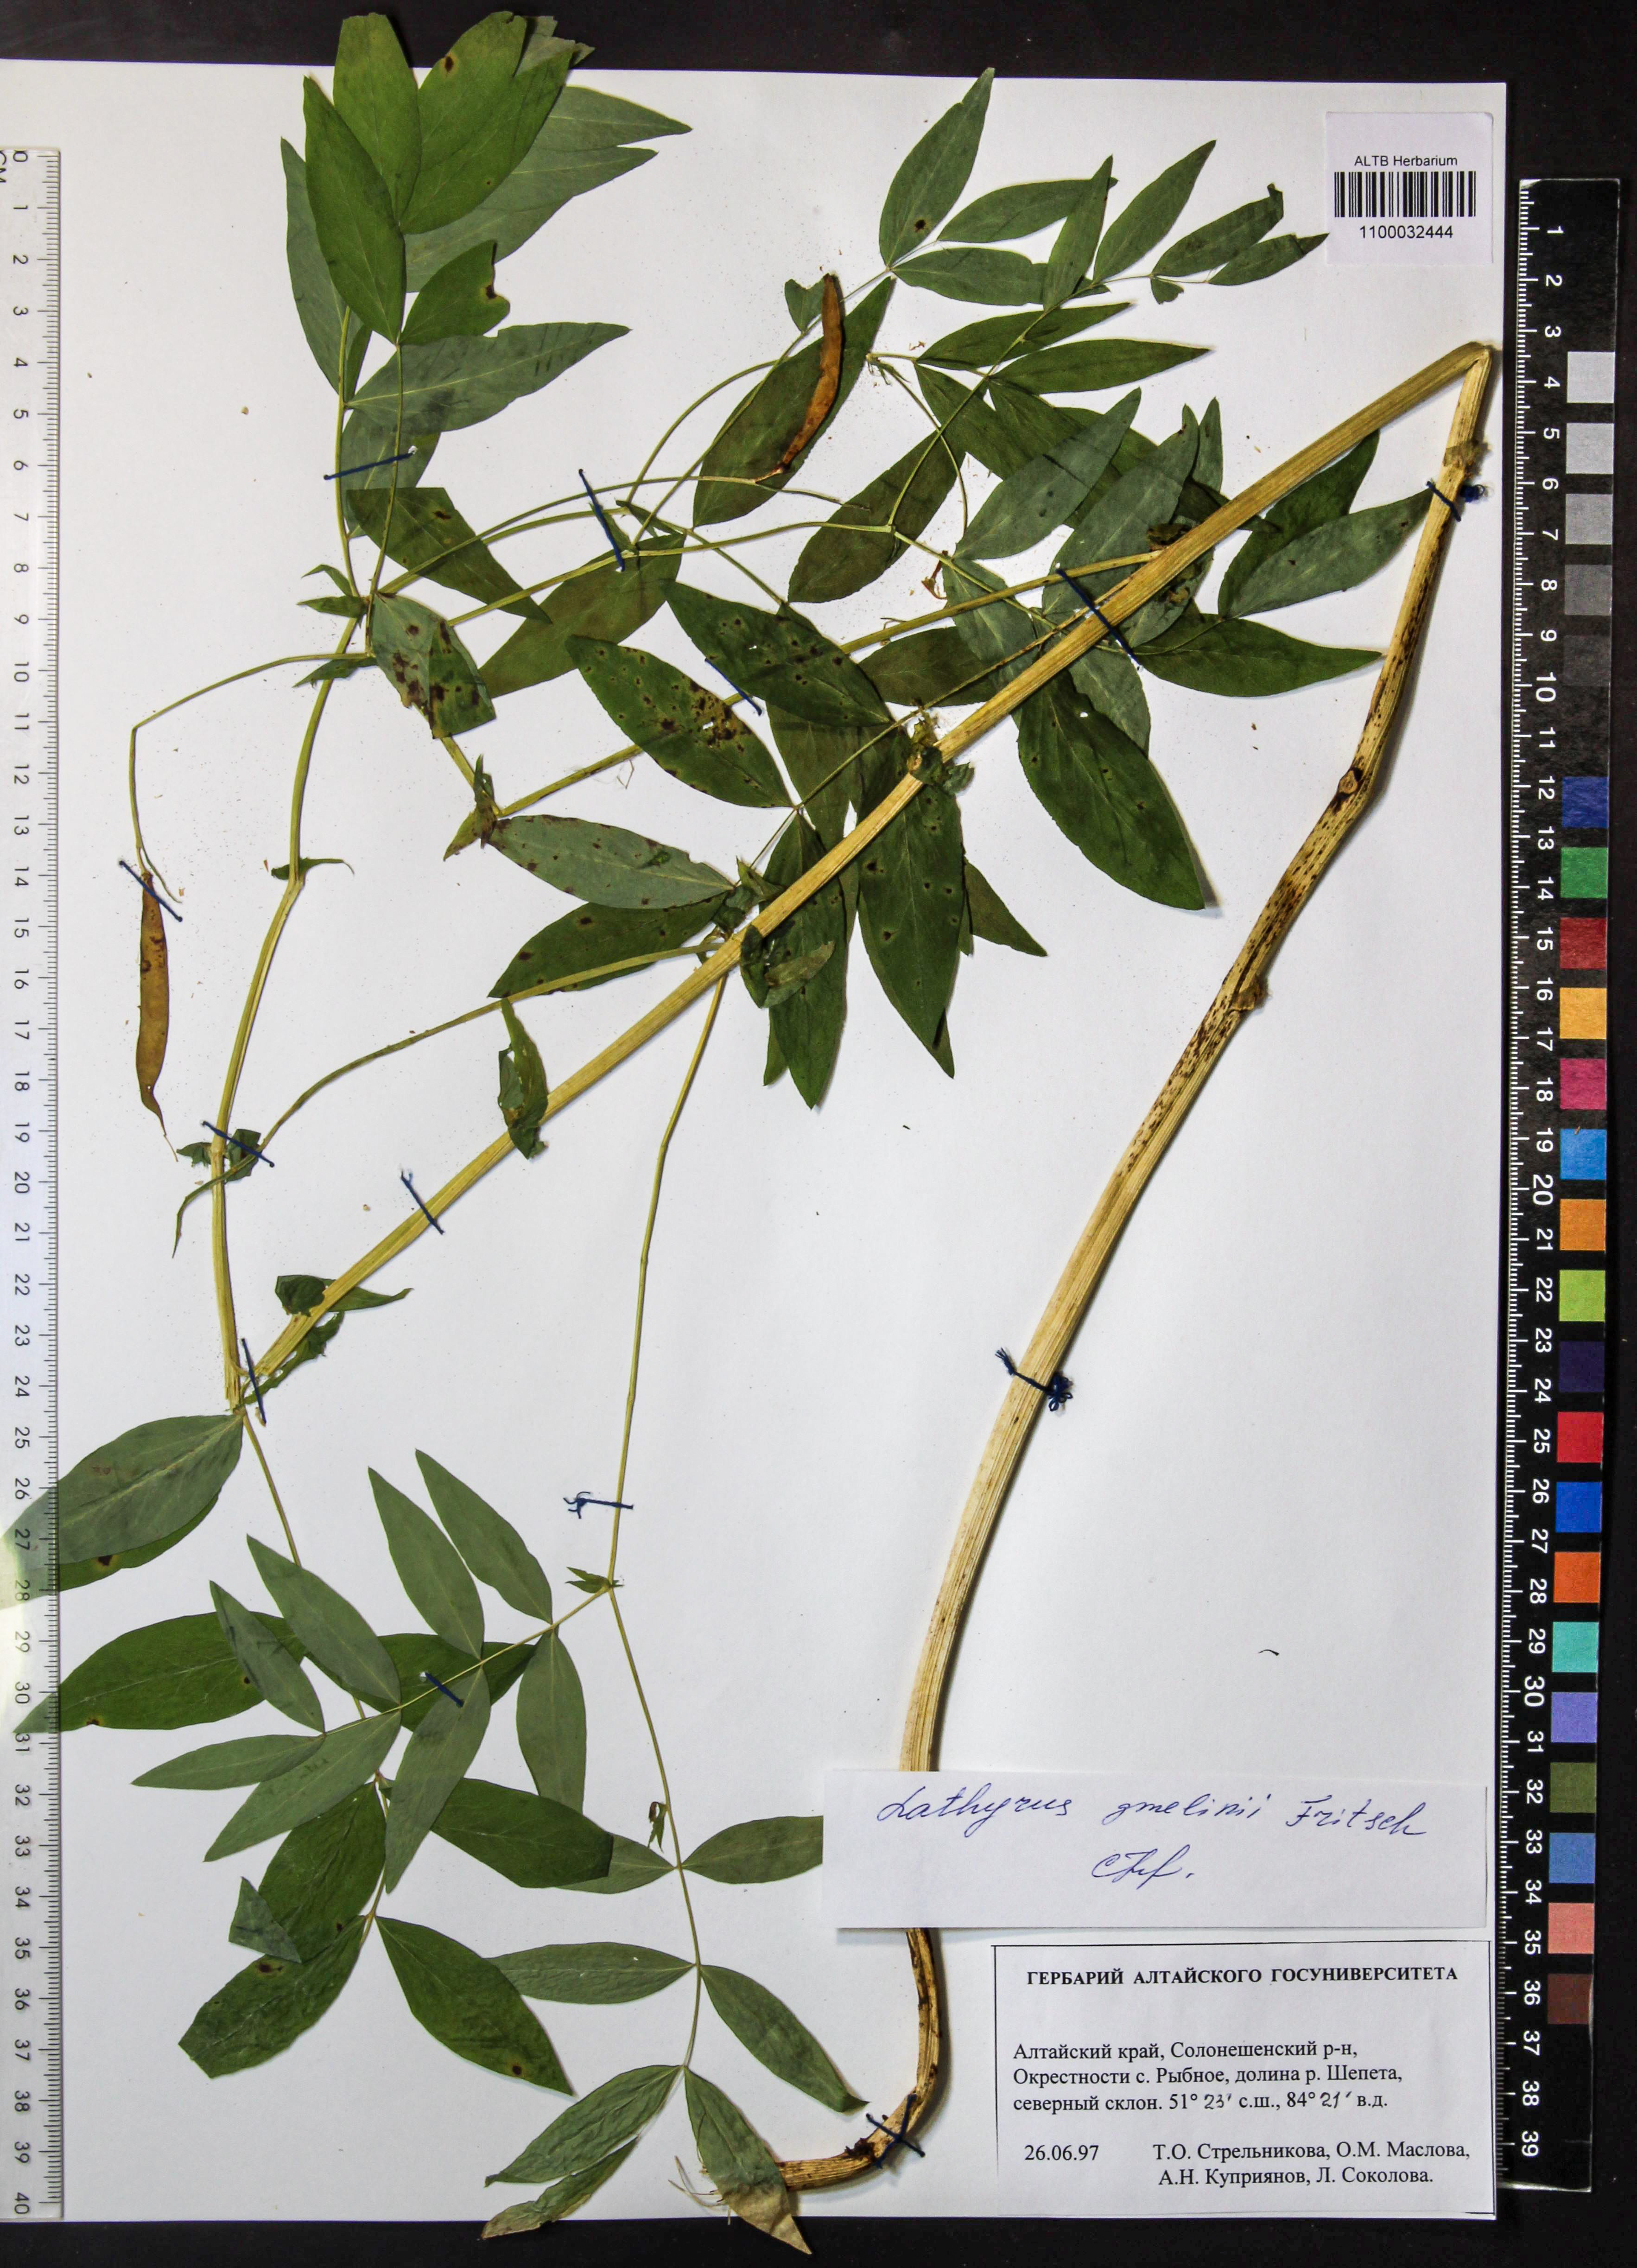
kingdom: Plantae
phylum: Tracheophyta
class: Magnoliopsida
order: Fabales
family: Fabaceae
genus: Lathyrus
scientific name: Lathyrus gmelinii
